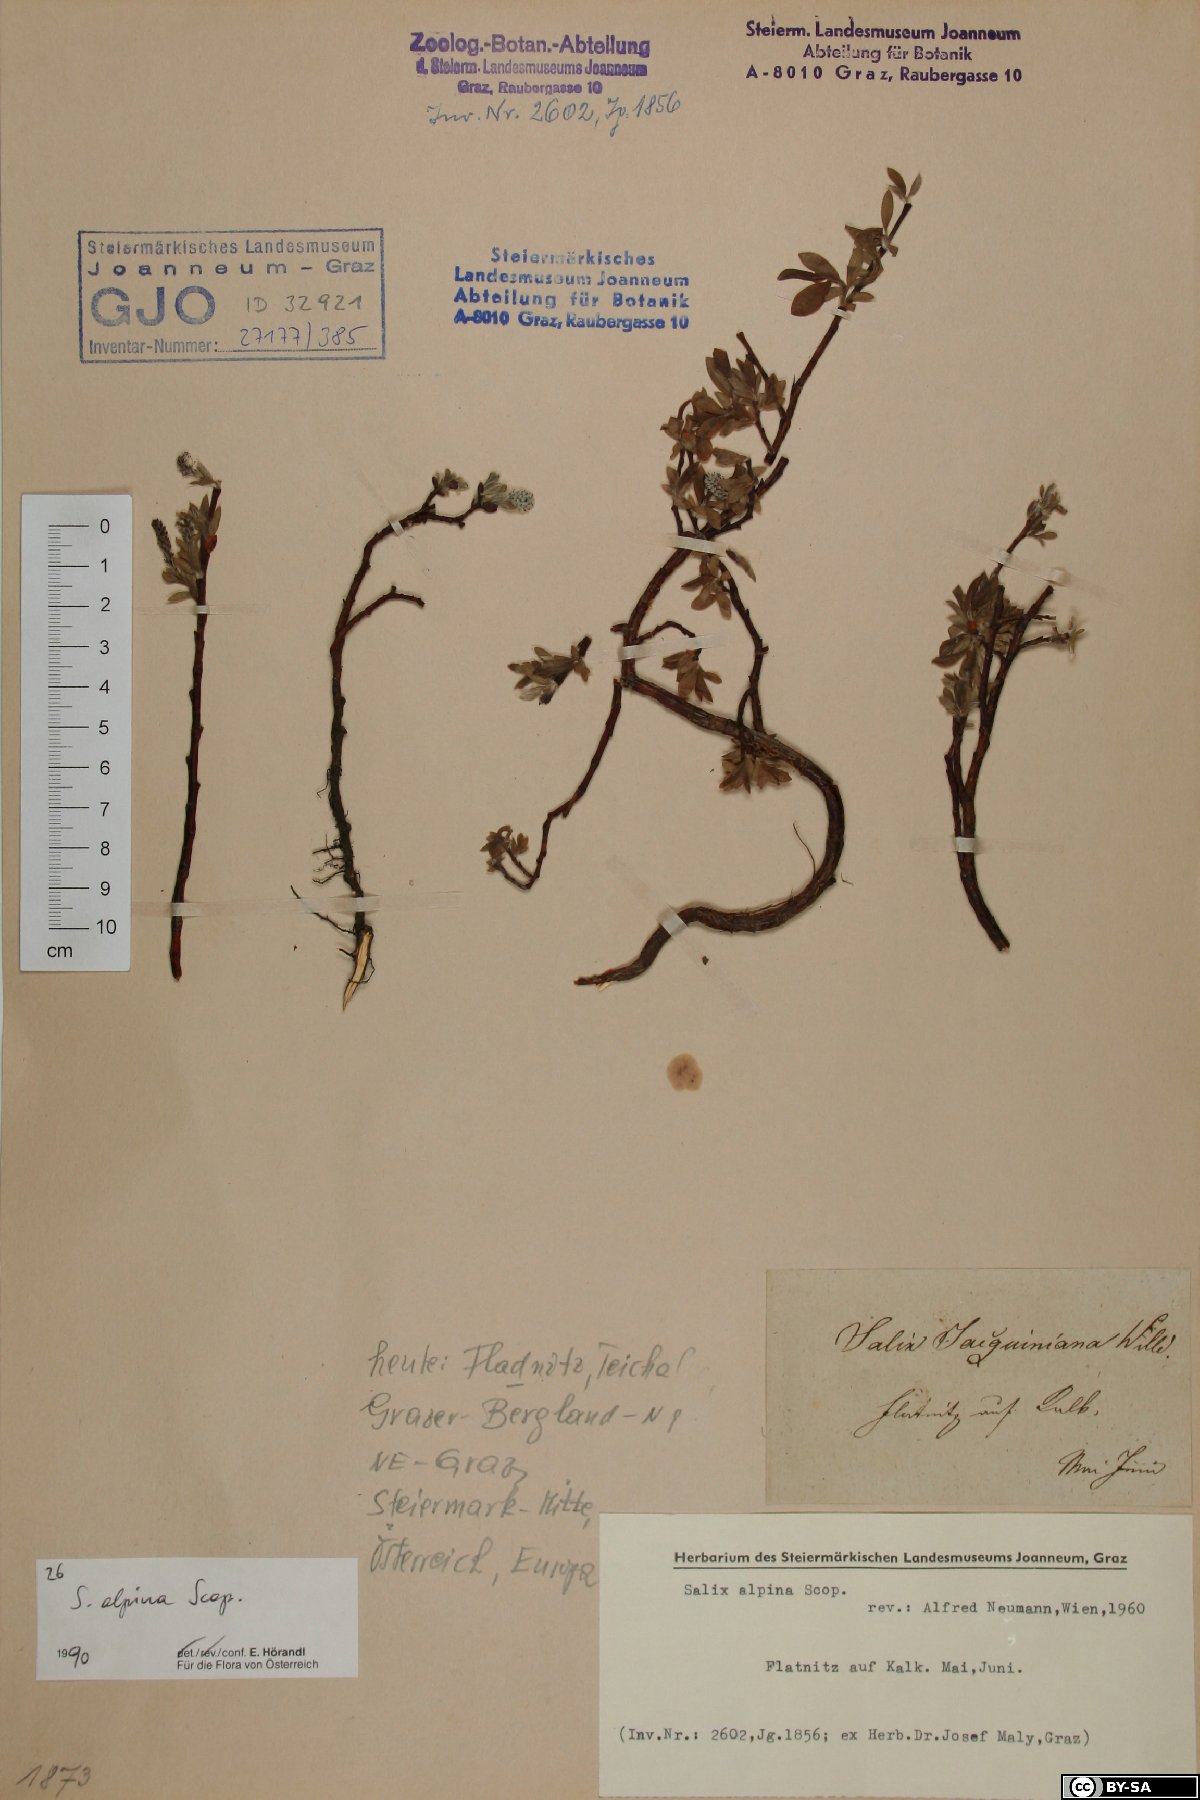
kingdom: Plantae
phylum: Tracheophyta
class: Magnoliopsida
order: Malpighiales
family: Salicaceae
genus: Salix
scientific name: Salix alpina
